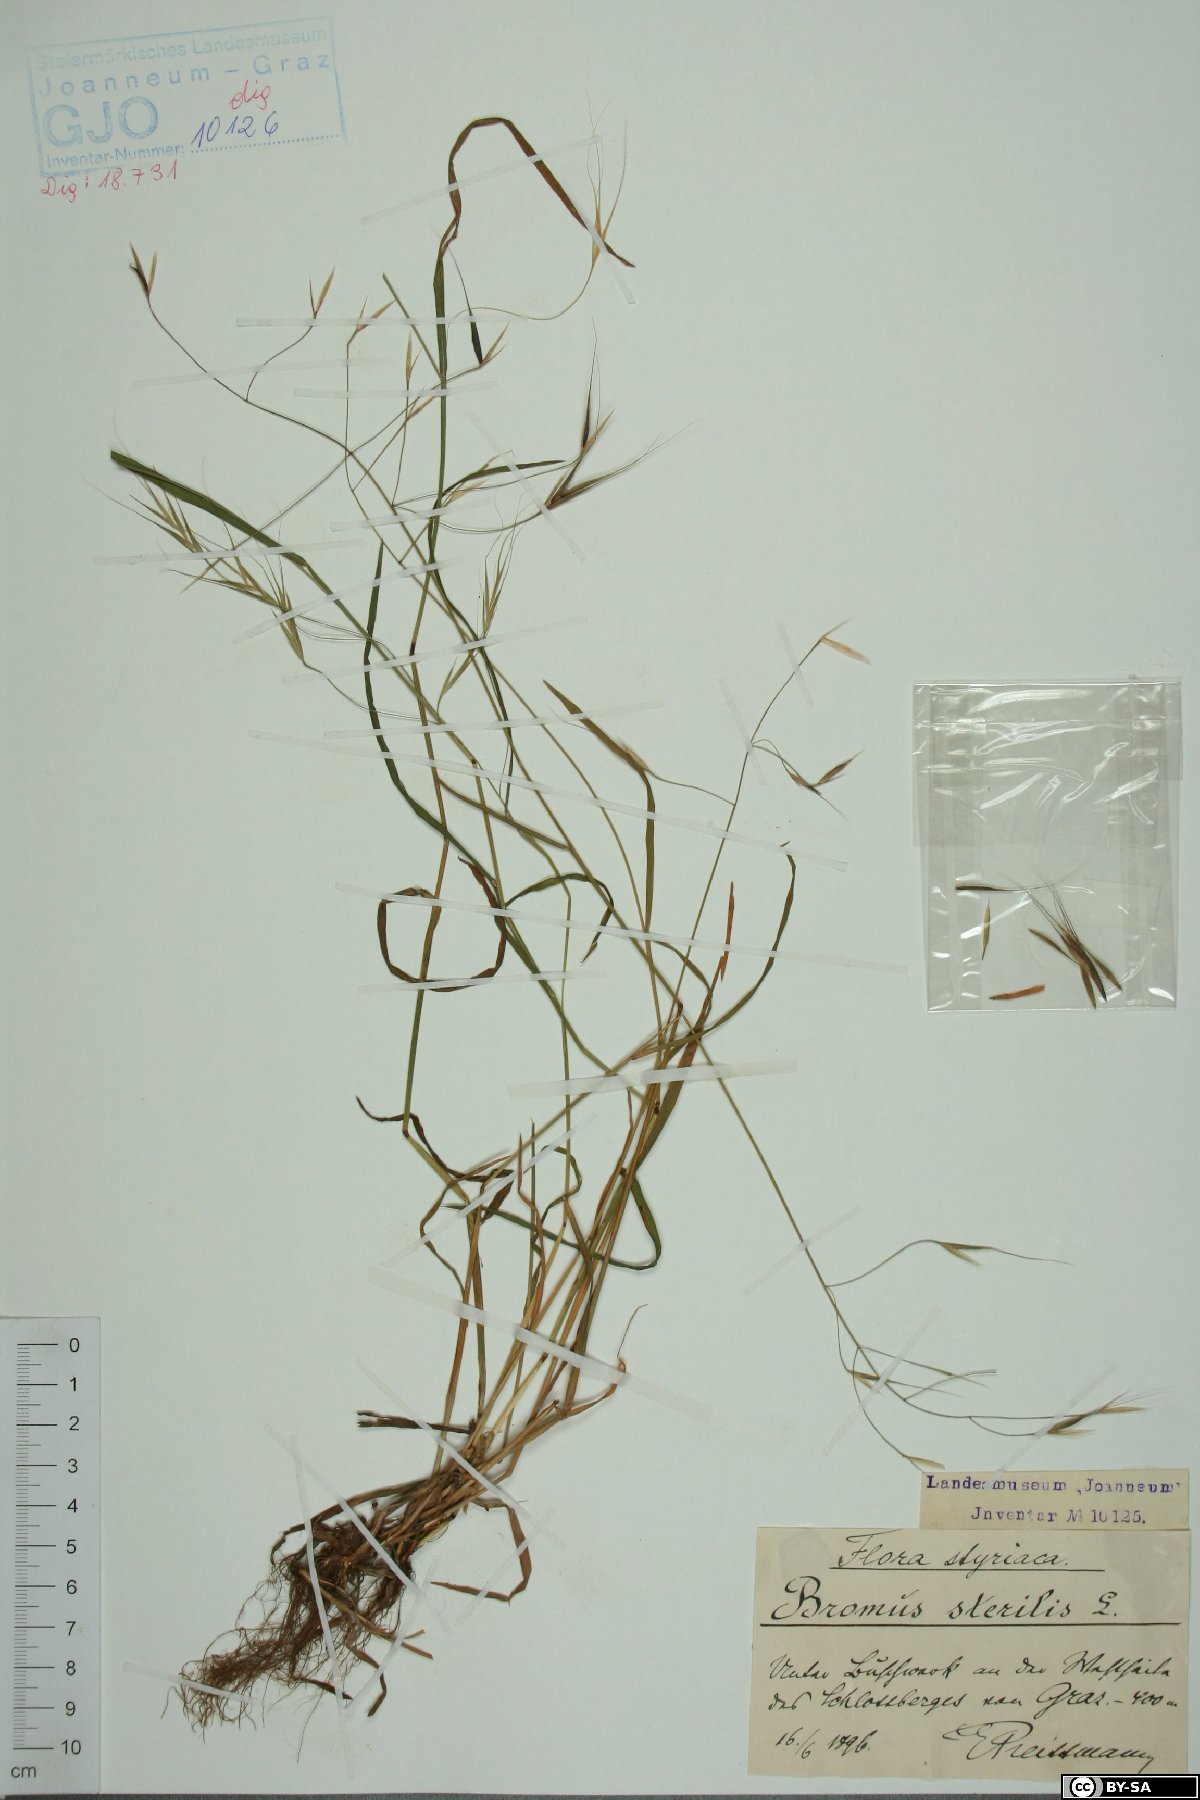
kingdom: Plantae
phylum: Tracheophyta
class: Liliopsida
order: Poales
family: Poaceae
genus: Bromus
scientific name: Bromus sterilis
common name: Poverty brome
